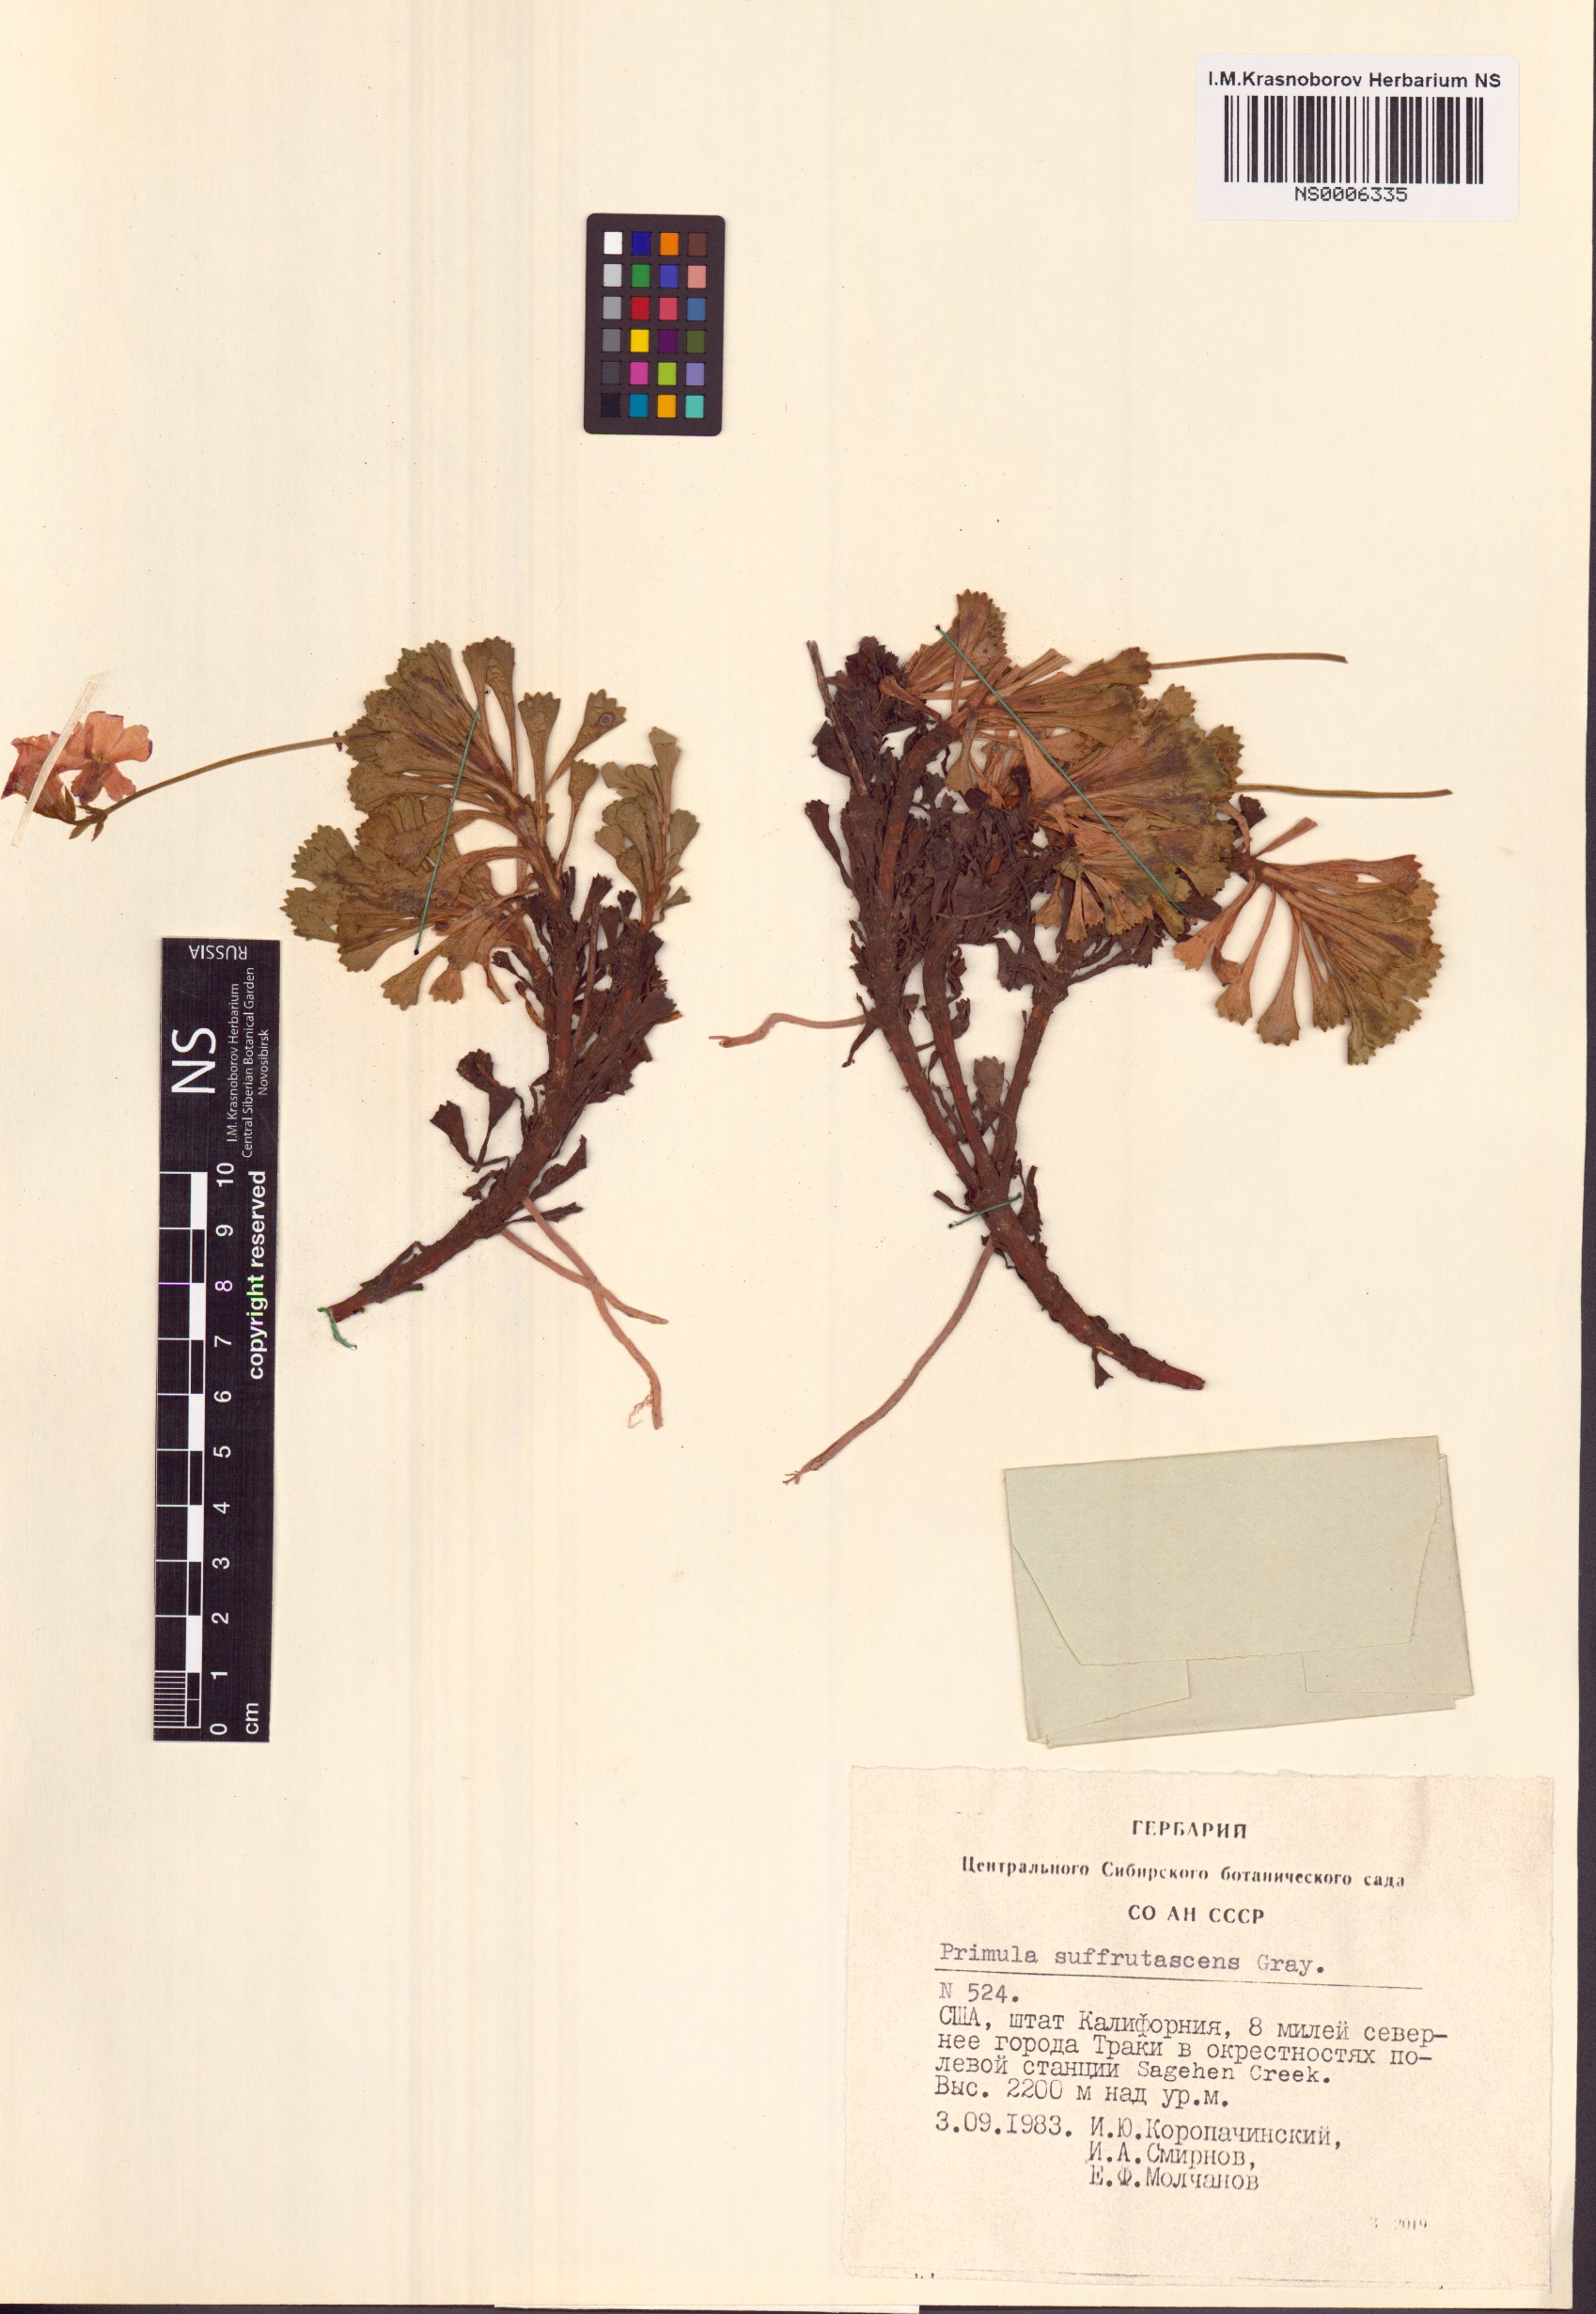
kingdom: Plantae
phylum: Tracheophyta
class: Magnoliopsida
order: Ericales
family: Primulaceae
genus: Primula
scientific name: Primula suffrutescens
